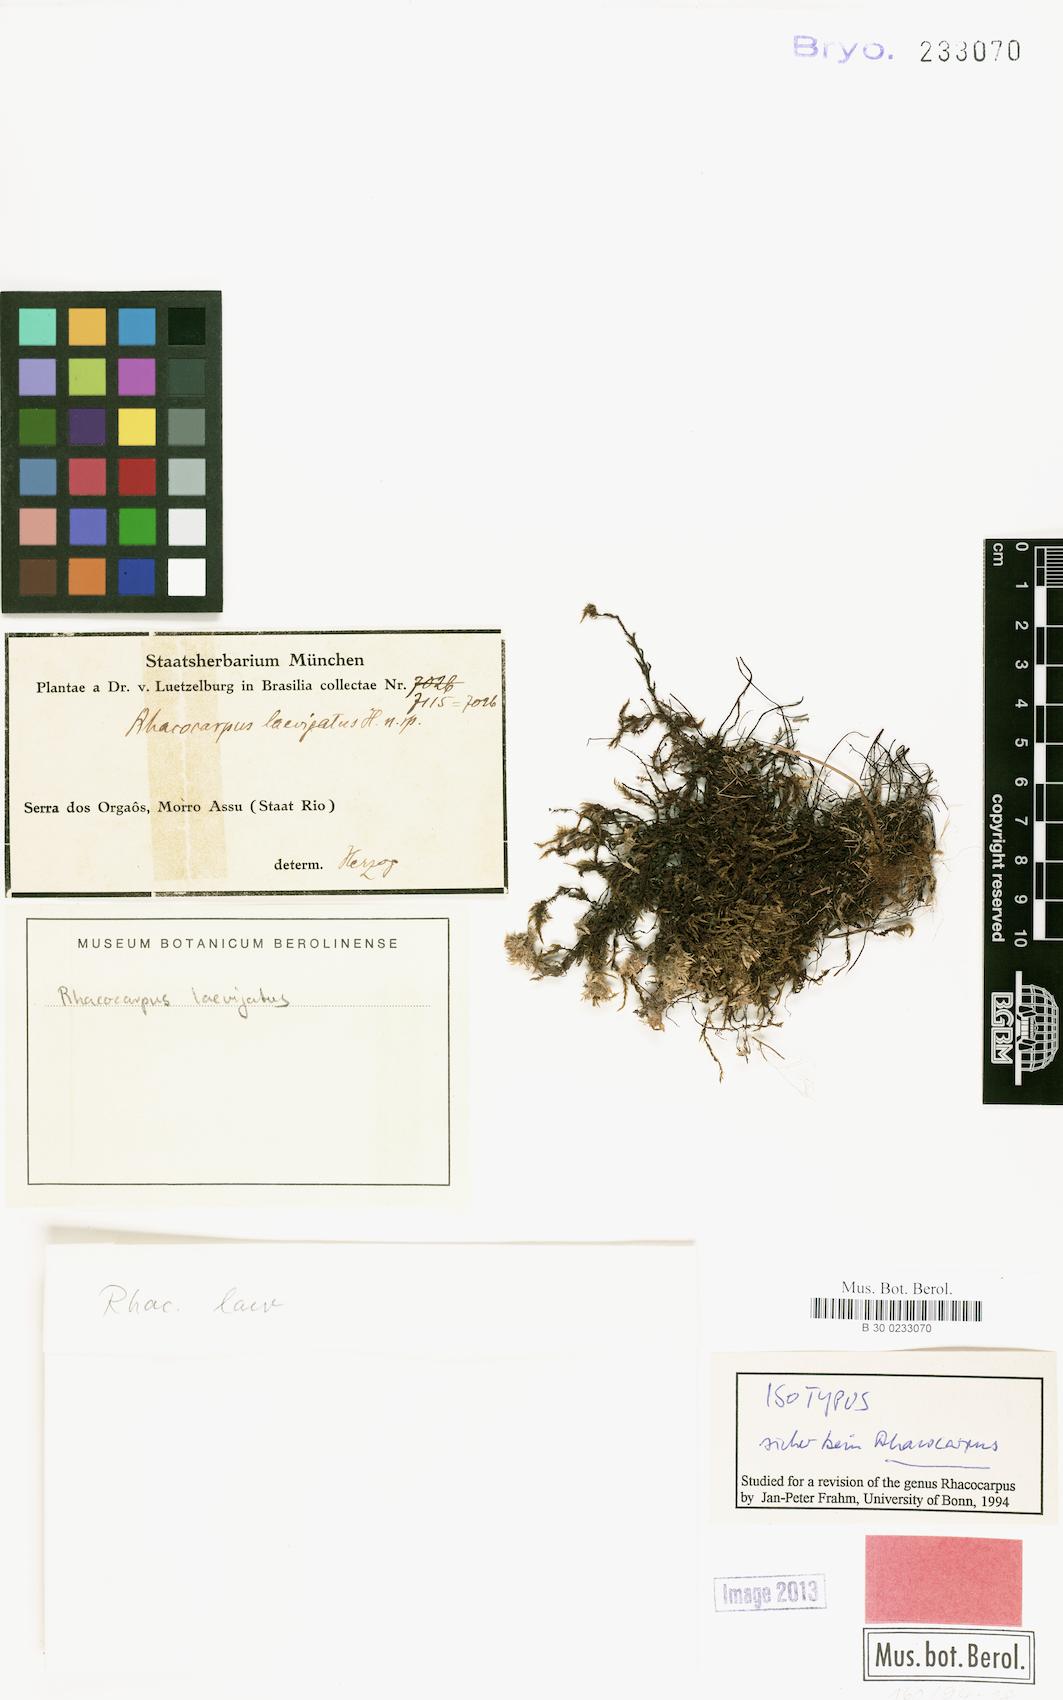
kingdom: Plantae
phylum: Bryophyta
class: Bryopsida
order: Hypnales
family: Sematophyllaceae
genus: Kuerschneria
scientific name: Kuerschneria laevigata
